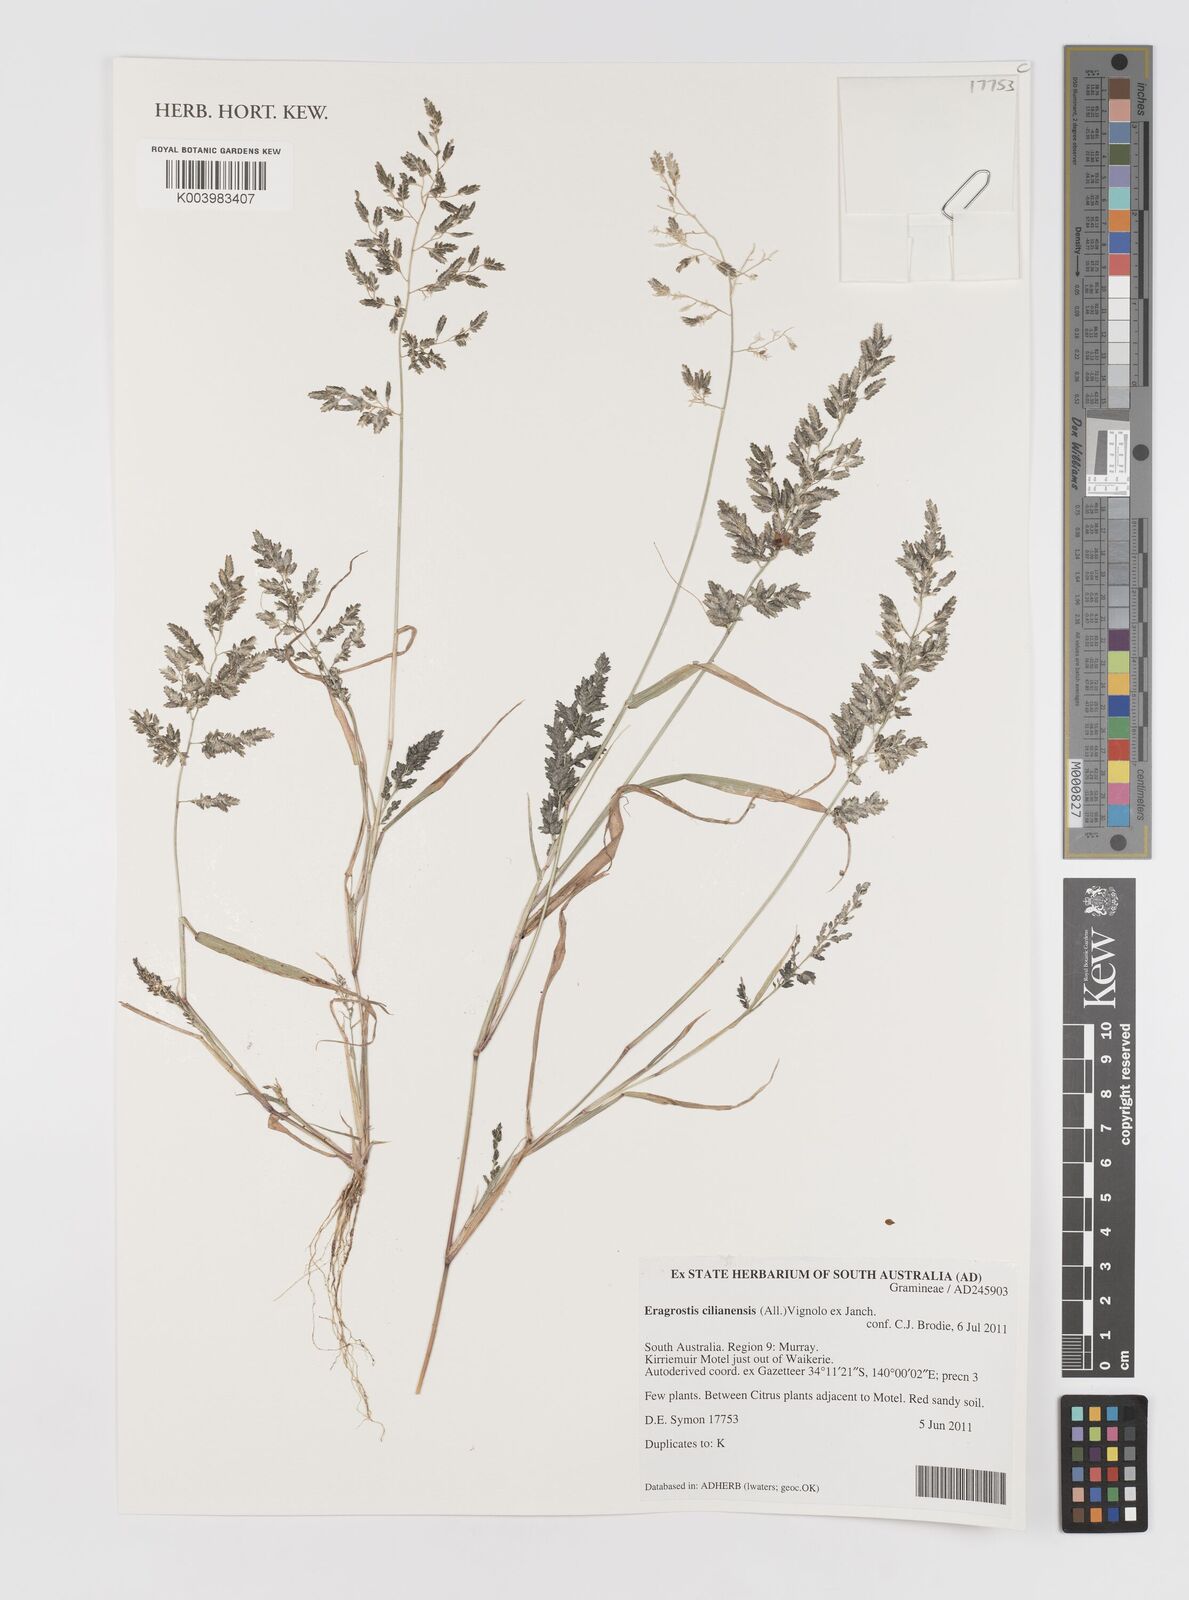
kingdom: Plantae
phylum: Tracheophyta
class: Liliopsida
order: Poales
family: Poaceae
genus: Eragrostis
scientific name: Eragrostis cilianensis
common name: Stinkgrass
